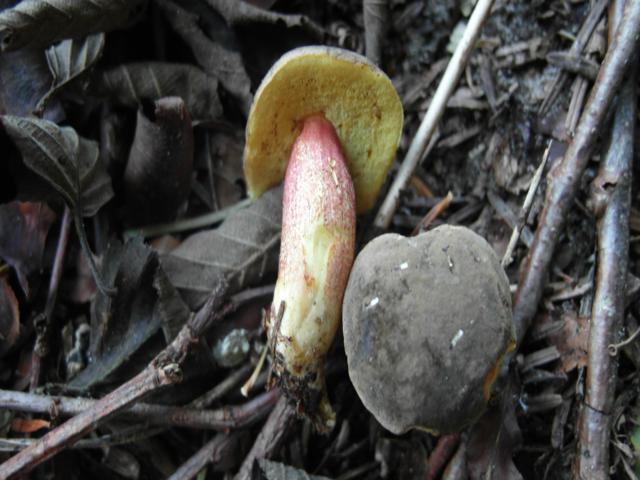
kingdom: Fungi
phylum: Basidiomycota
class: Agaricomycetes
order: Boletales
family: Boletaceae
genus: Xerocomellus
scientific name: Xerocomellus pruinatus
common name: dugget rørhat
